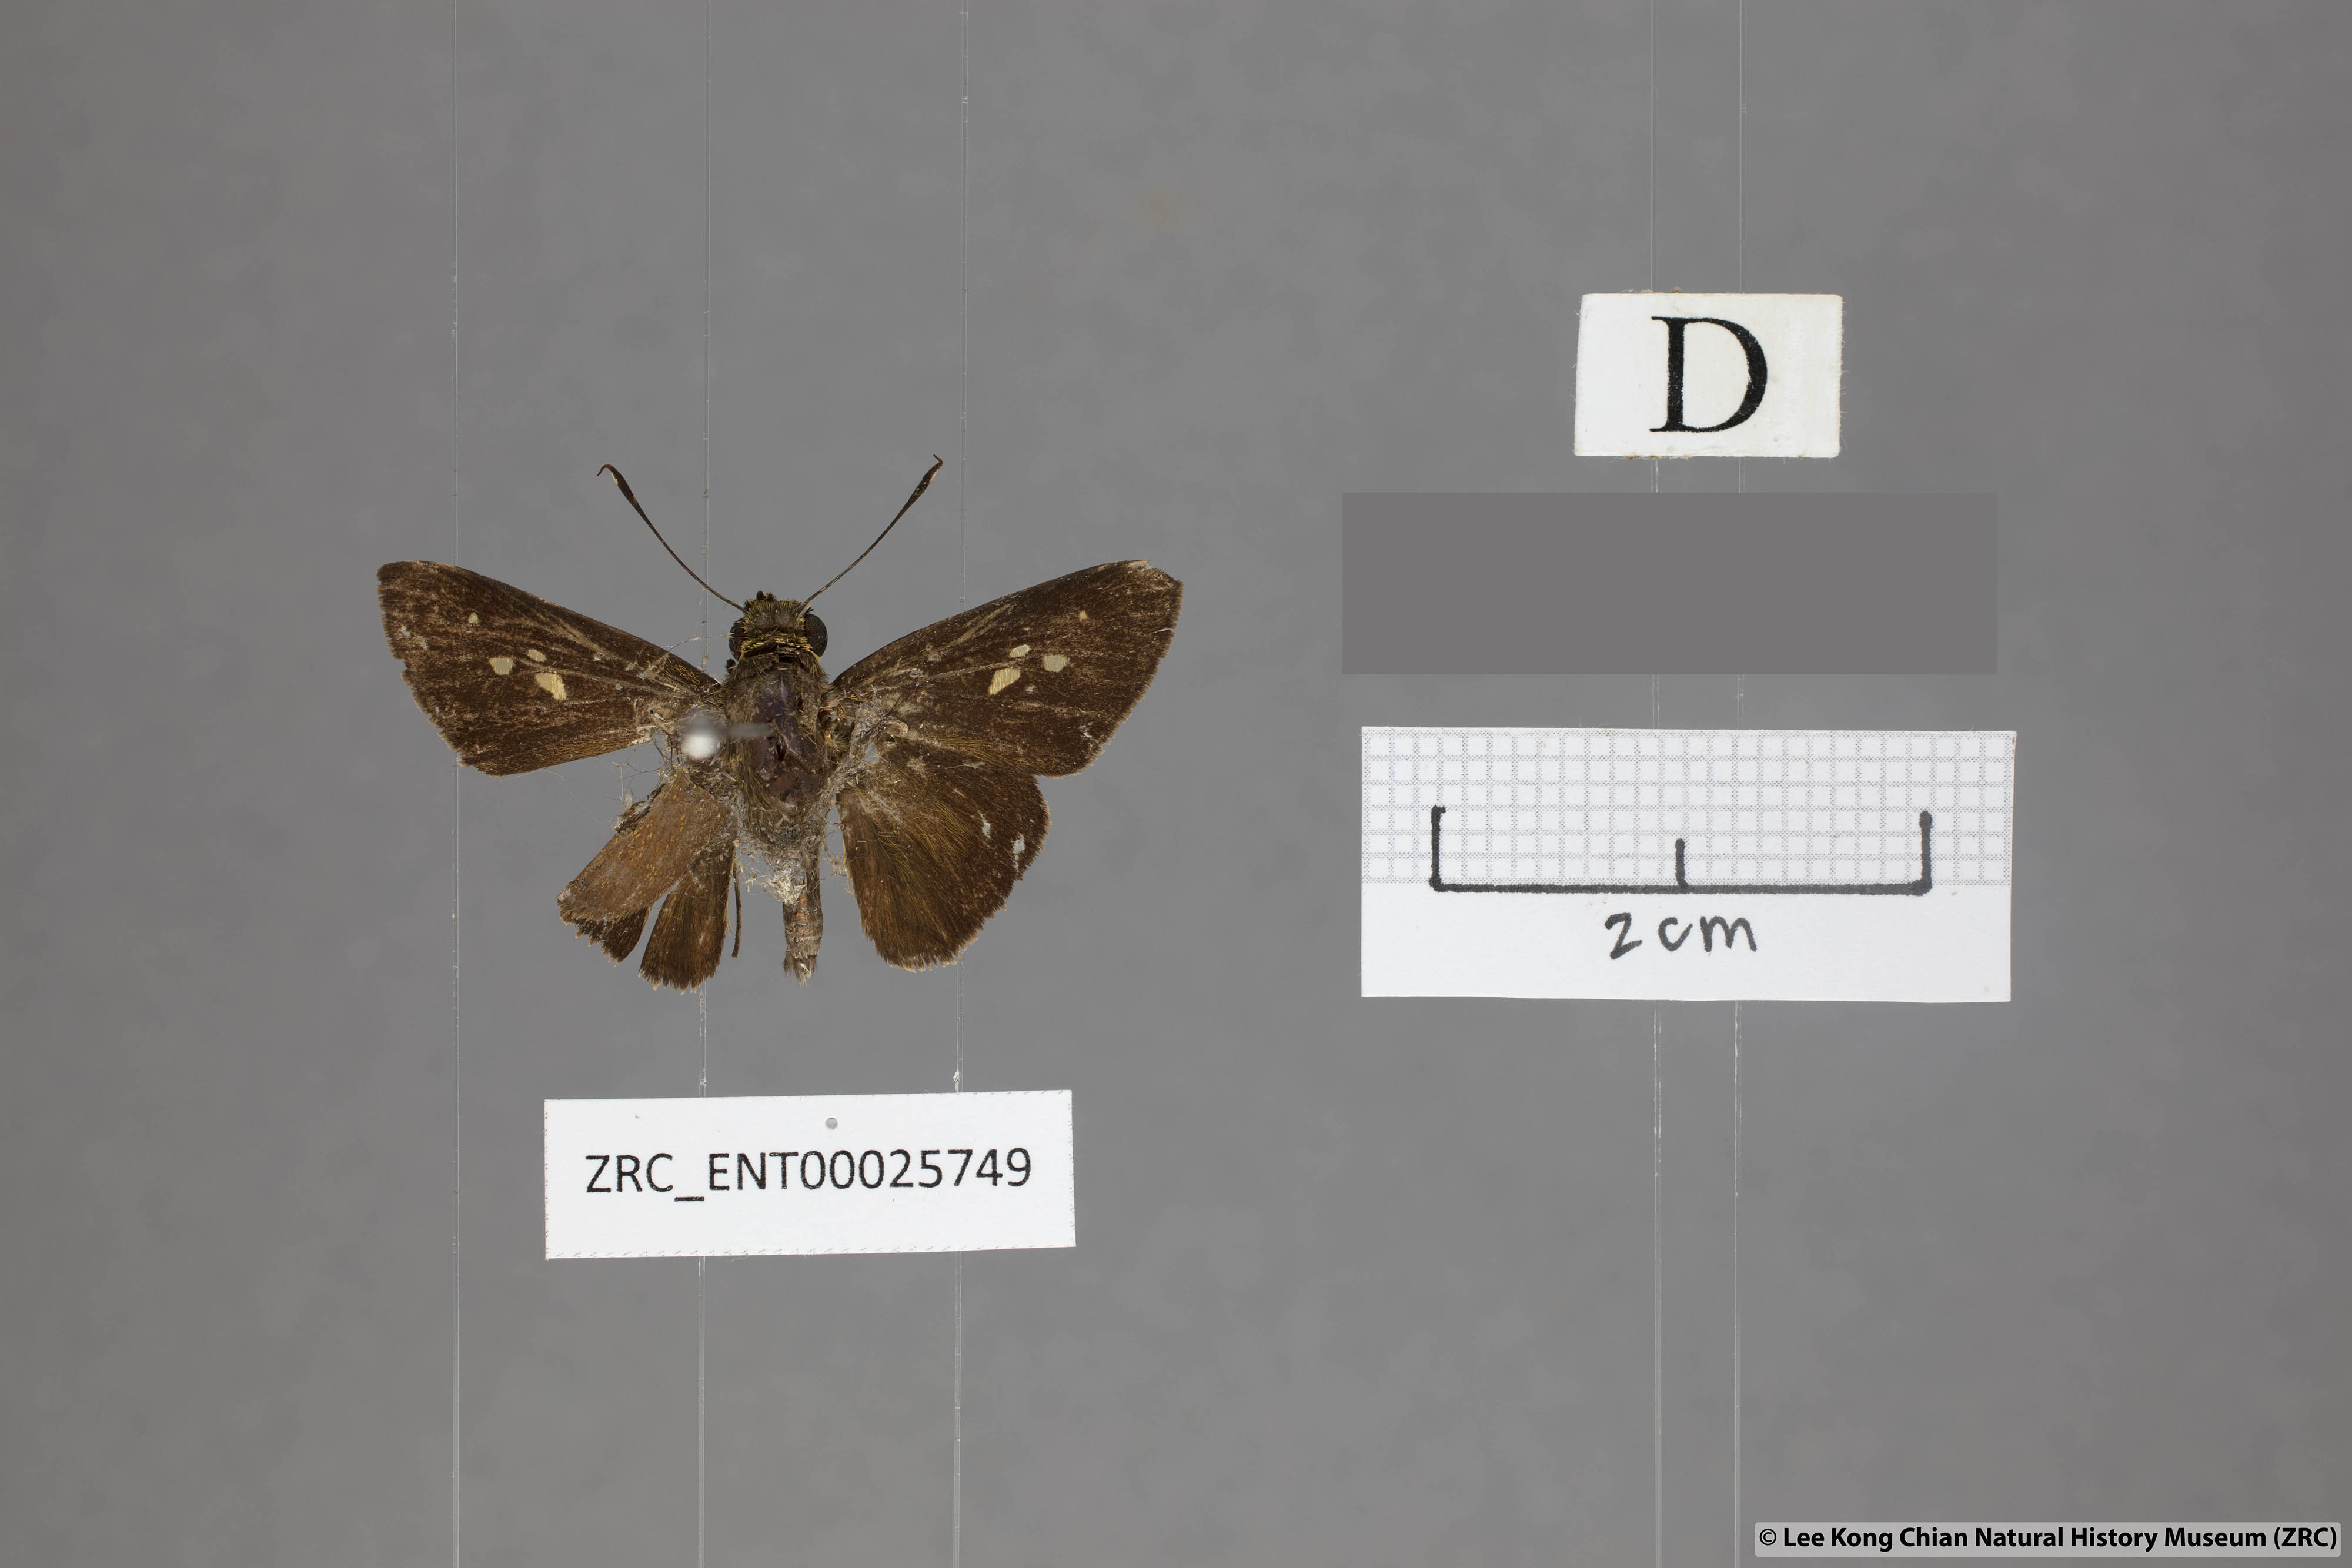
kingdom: Animalia
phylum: Arthropoda
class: Insecta
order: Lepidoptera
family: Hesperiidae
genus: Zographetus
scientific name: Zographetus rama
